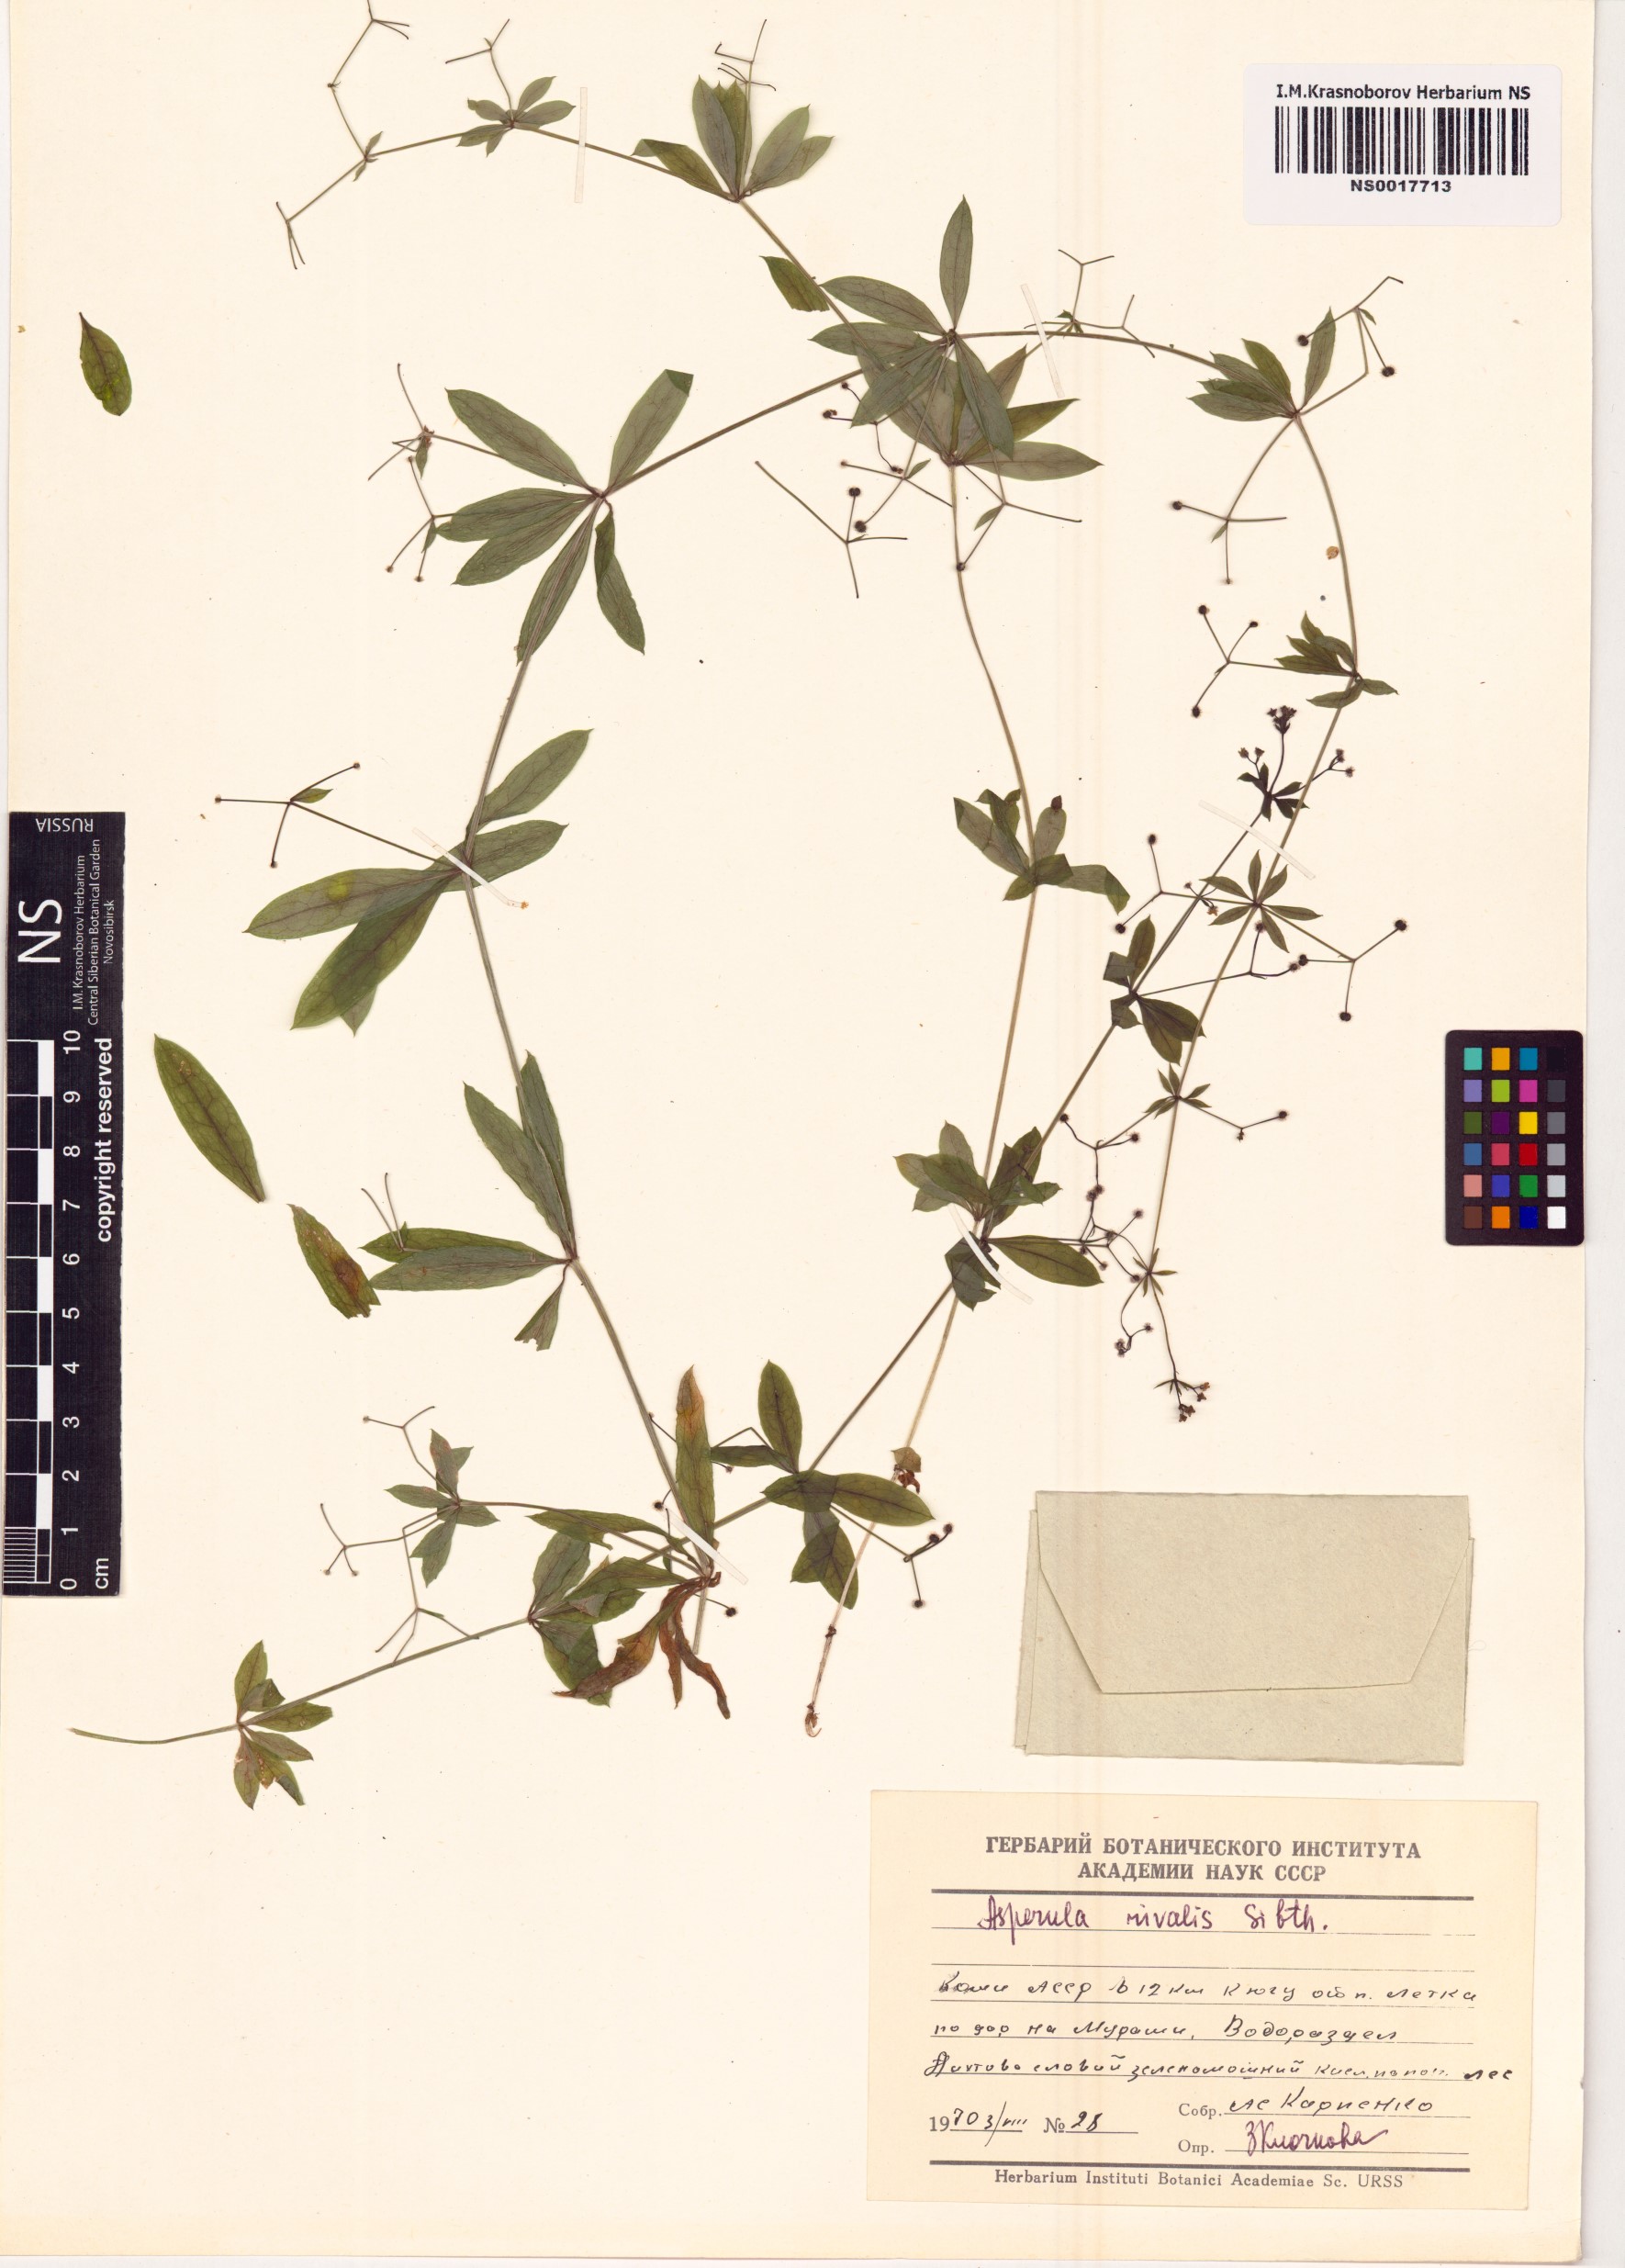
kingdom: Plantae
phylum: Tracheophyta
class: Magnoliopsida
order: Gentianales
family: Rubiaceae
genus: Galium
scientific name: Galium rivale
